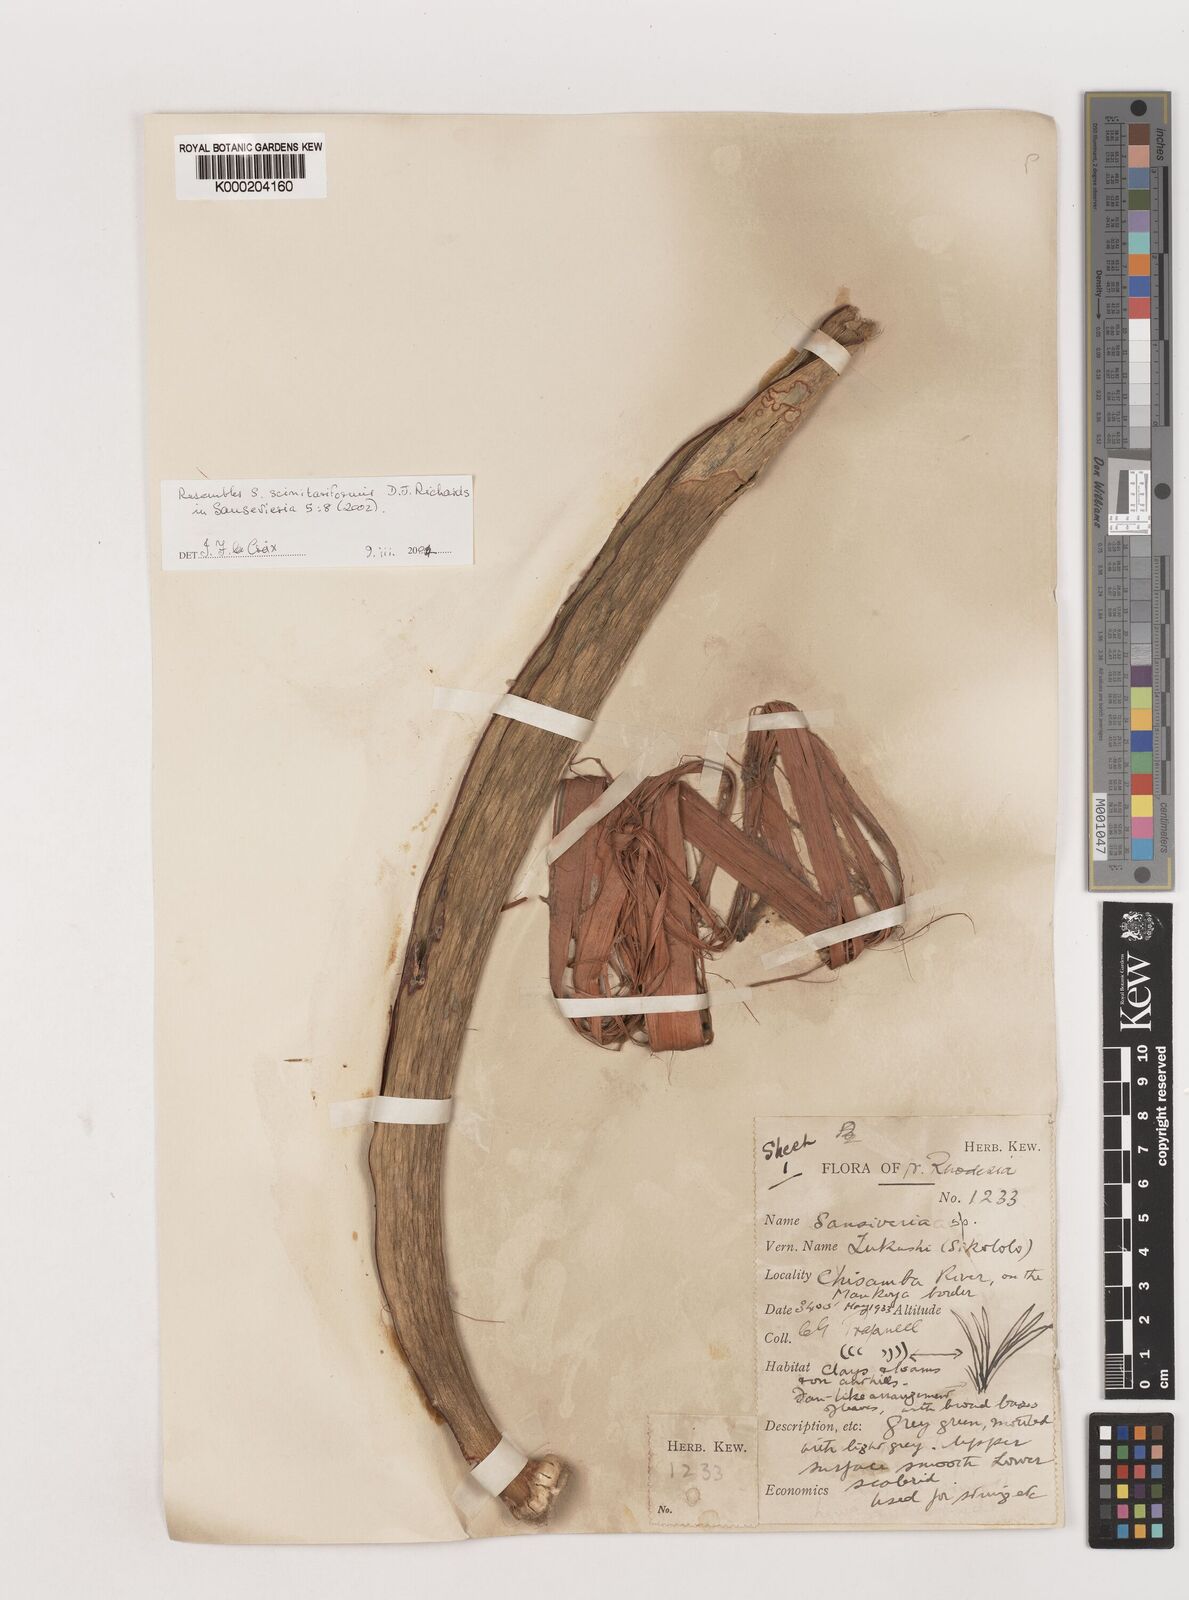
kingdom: Plantae
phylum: Tracheophyta
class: Liliopsida
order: Asparagales
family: Asparagaceae
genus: Dracaena
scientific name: Dracaena mannii
